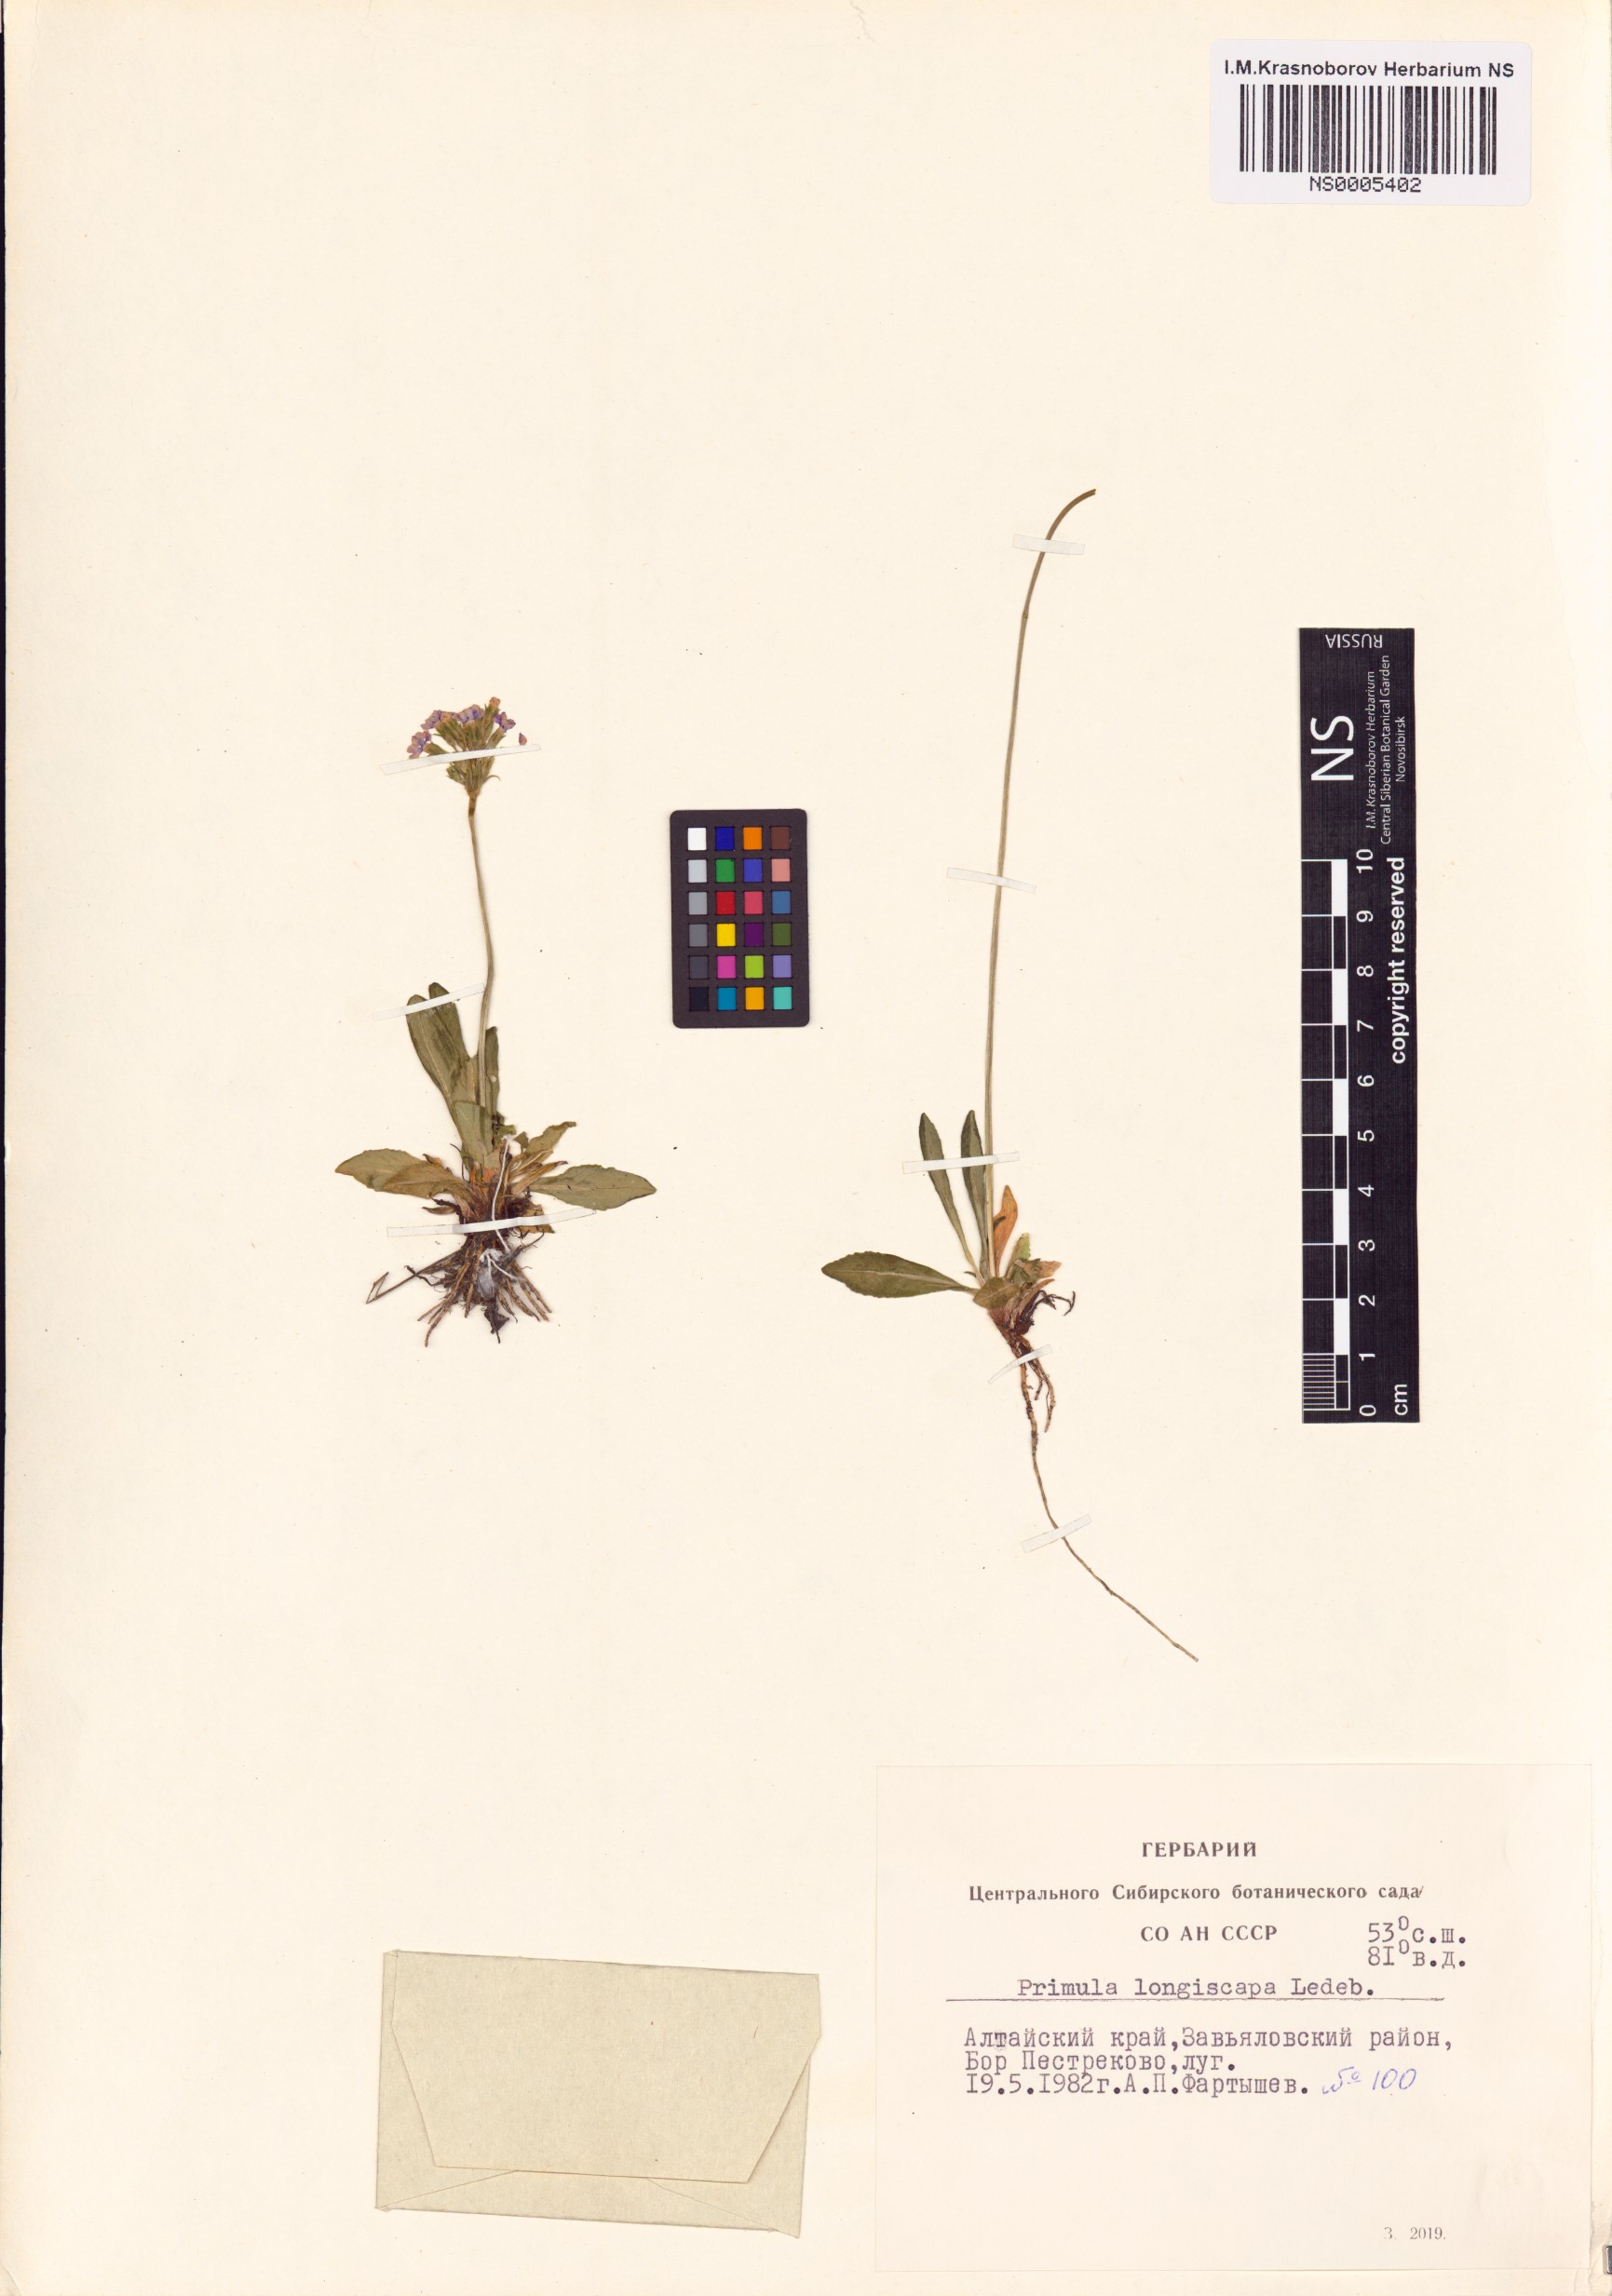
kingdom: Plantae
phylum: Tracheophyta
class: Magnoliopsida
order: Ericales
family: Primulaceae
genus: Primula
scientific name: Primula longiscapa
